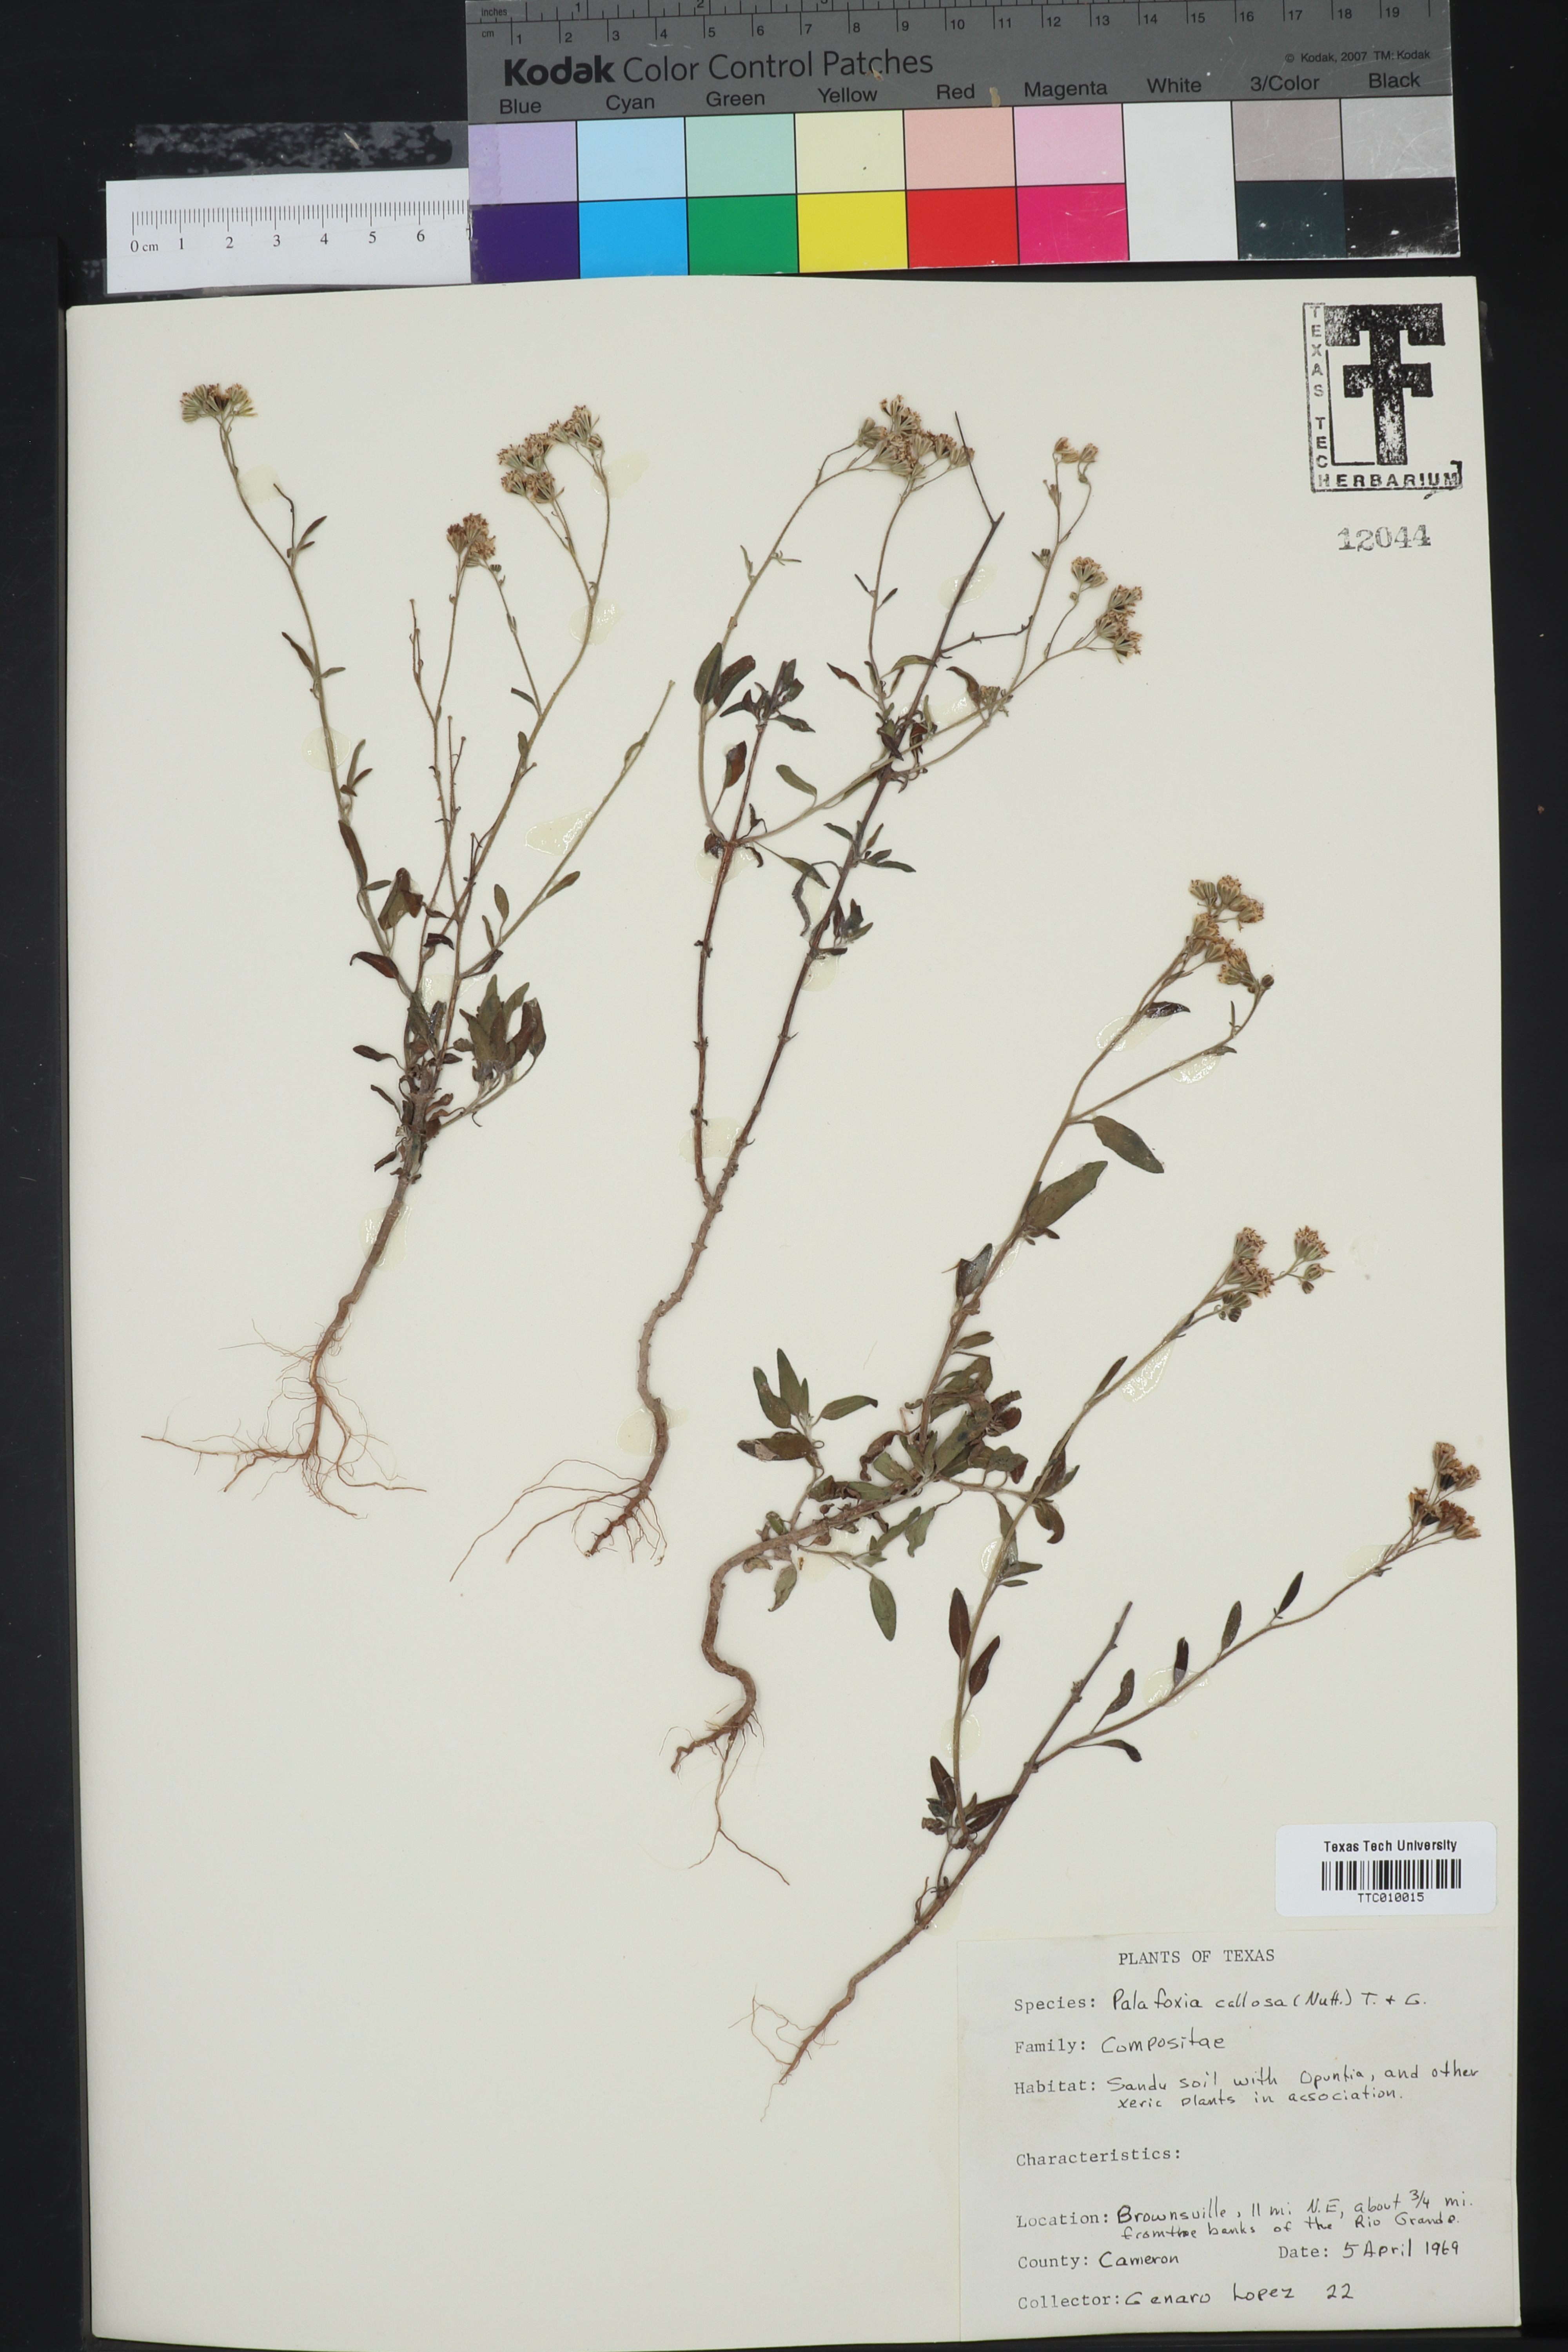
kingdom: Plantae
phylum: Tracheophyta
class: Magnoliopsida
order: Asterales
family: Asteraceae
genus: Palafoxia
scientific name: Palafoxia callosa
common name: Small palafox
